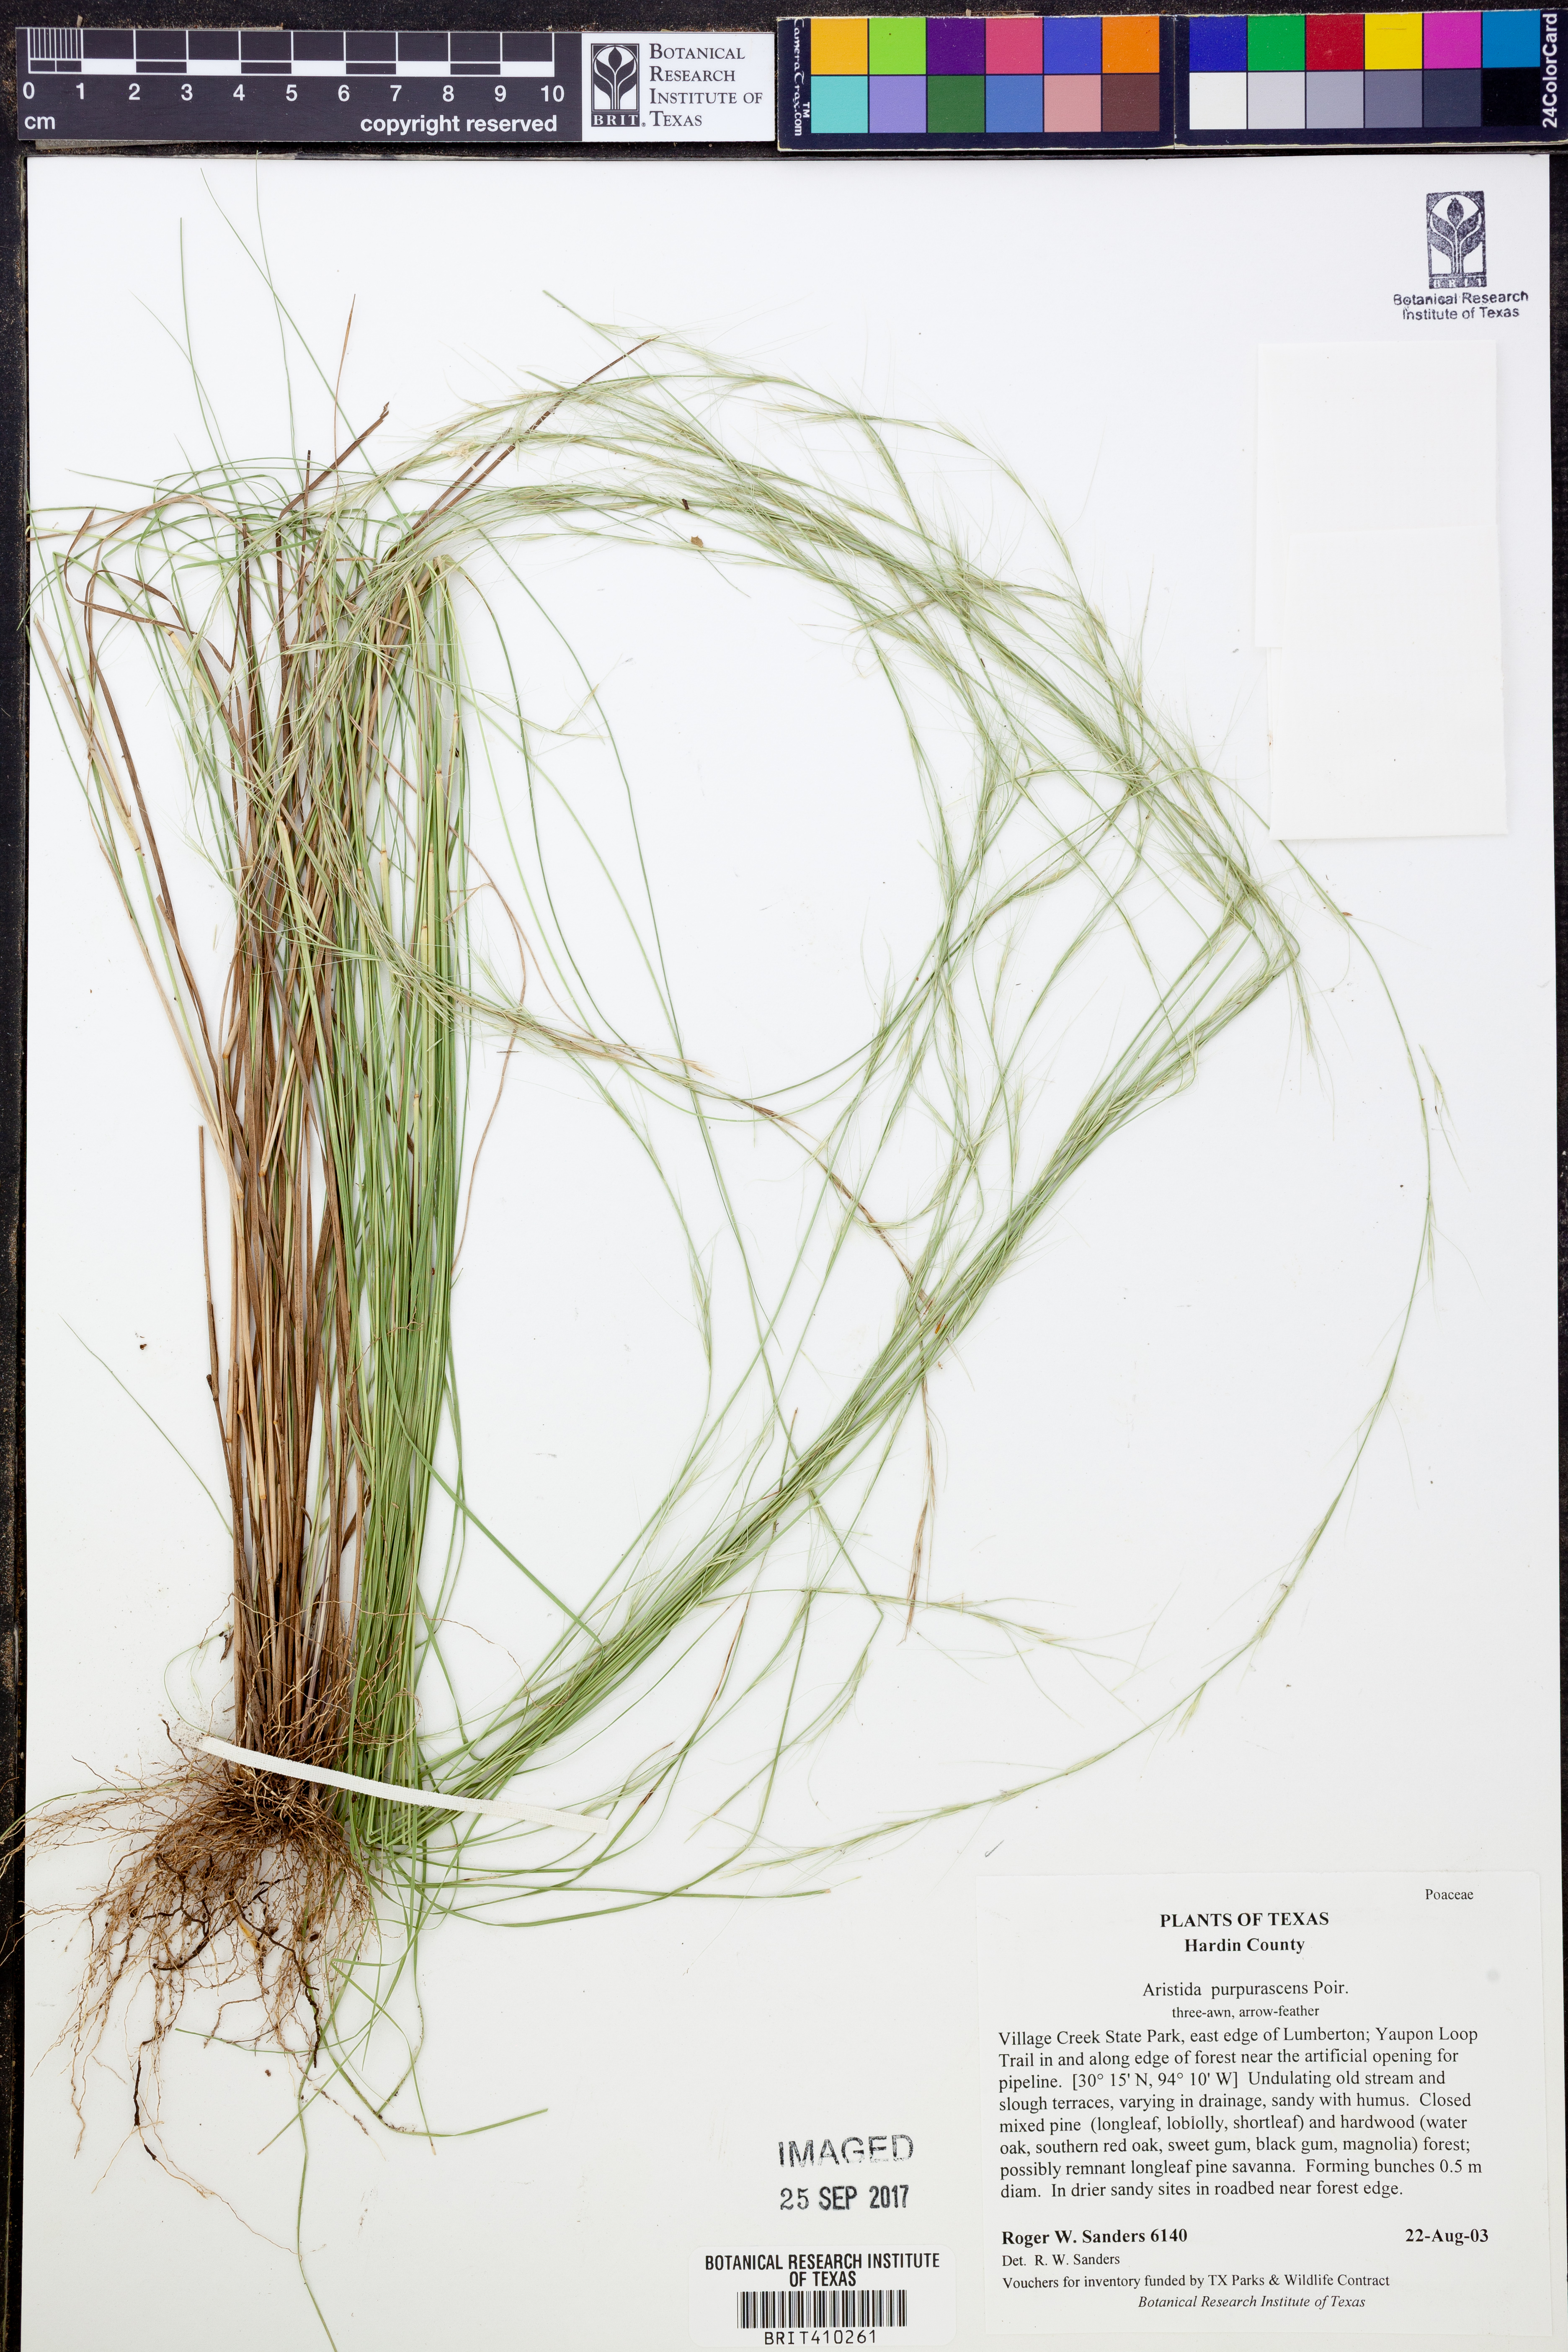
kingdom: Plantae
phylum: Tracheophyta
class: Liliopsida
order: Poales
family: Poaceae
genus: Aristida
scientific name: Aristida purpurascens
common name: Arrow-feather
